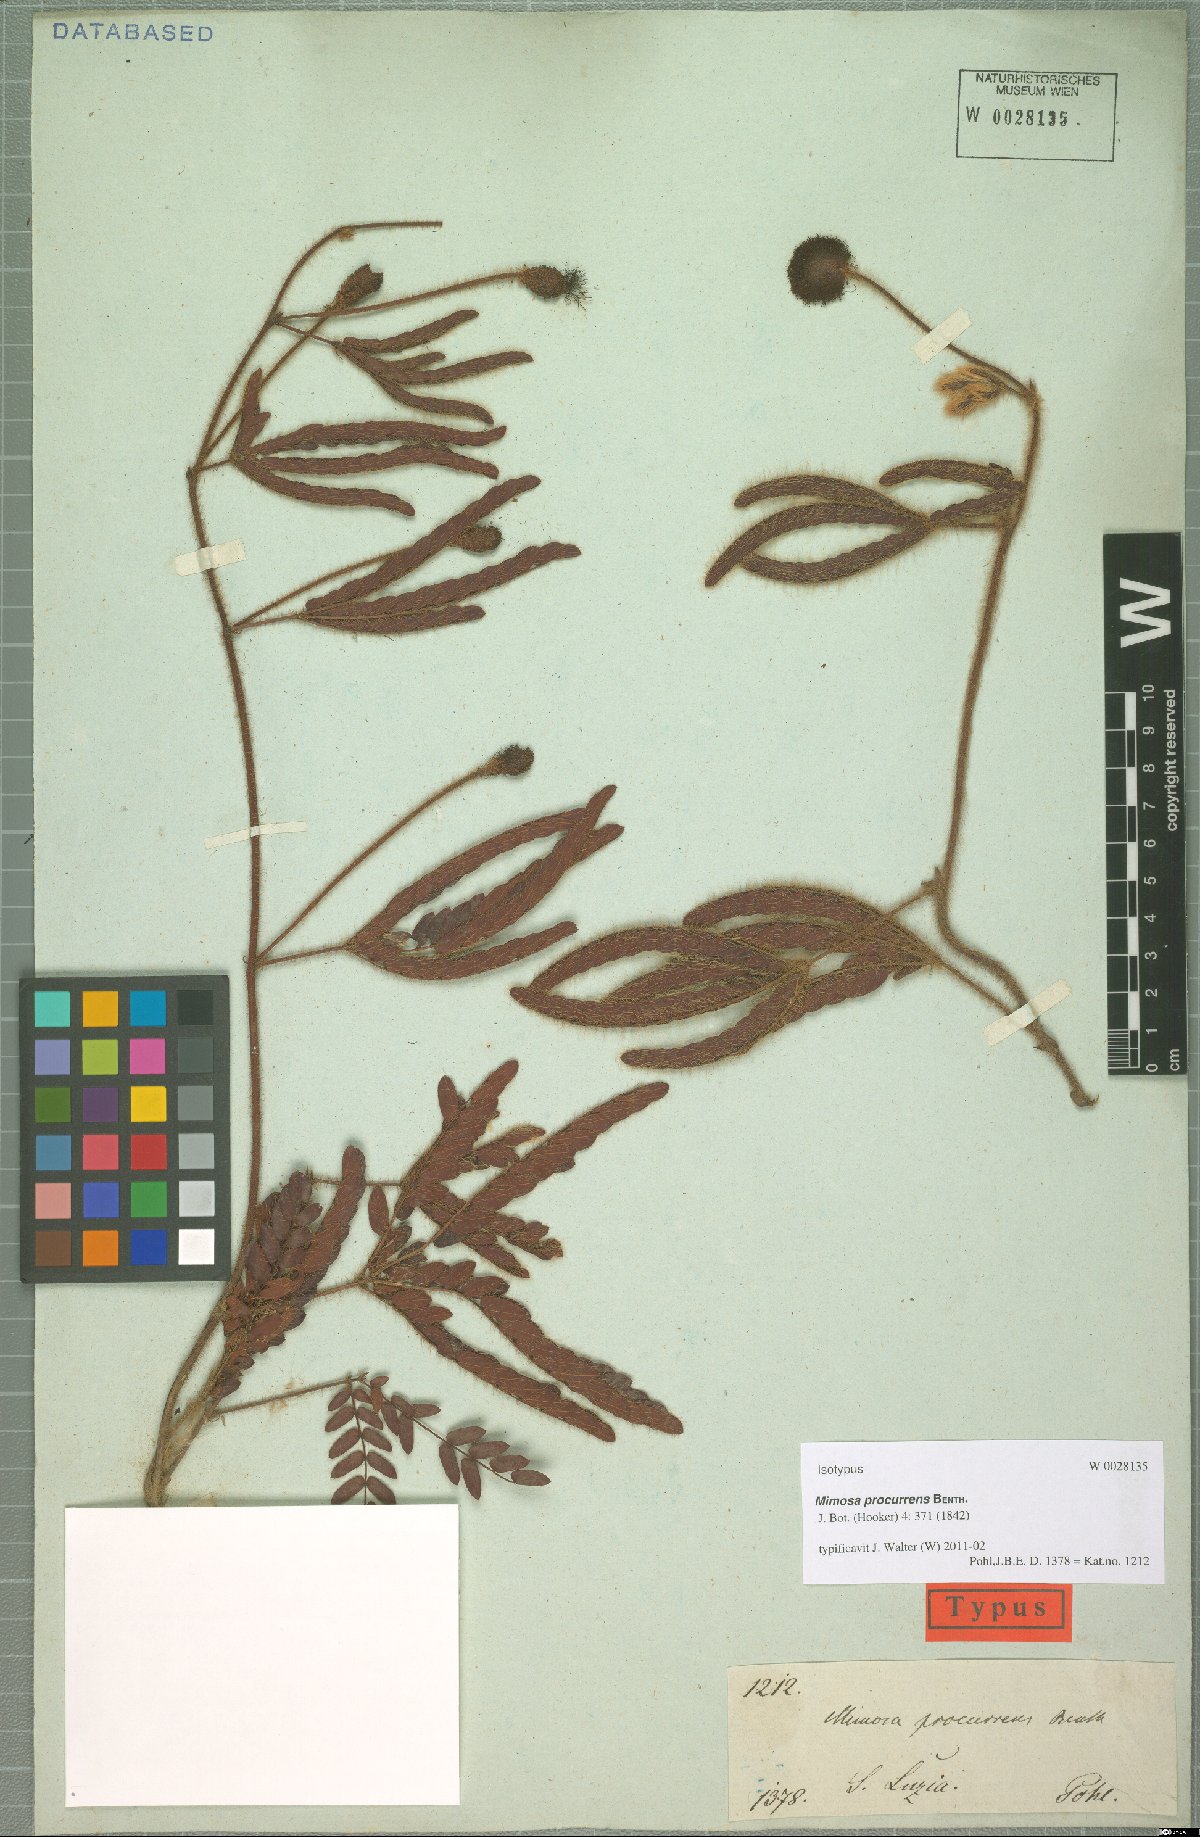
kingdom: Plantae
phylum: Tracheophyta
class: Magnoliopsida
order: Fabales
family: Fabaceae
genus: Mimosa
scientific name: Mimosa procurrens
